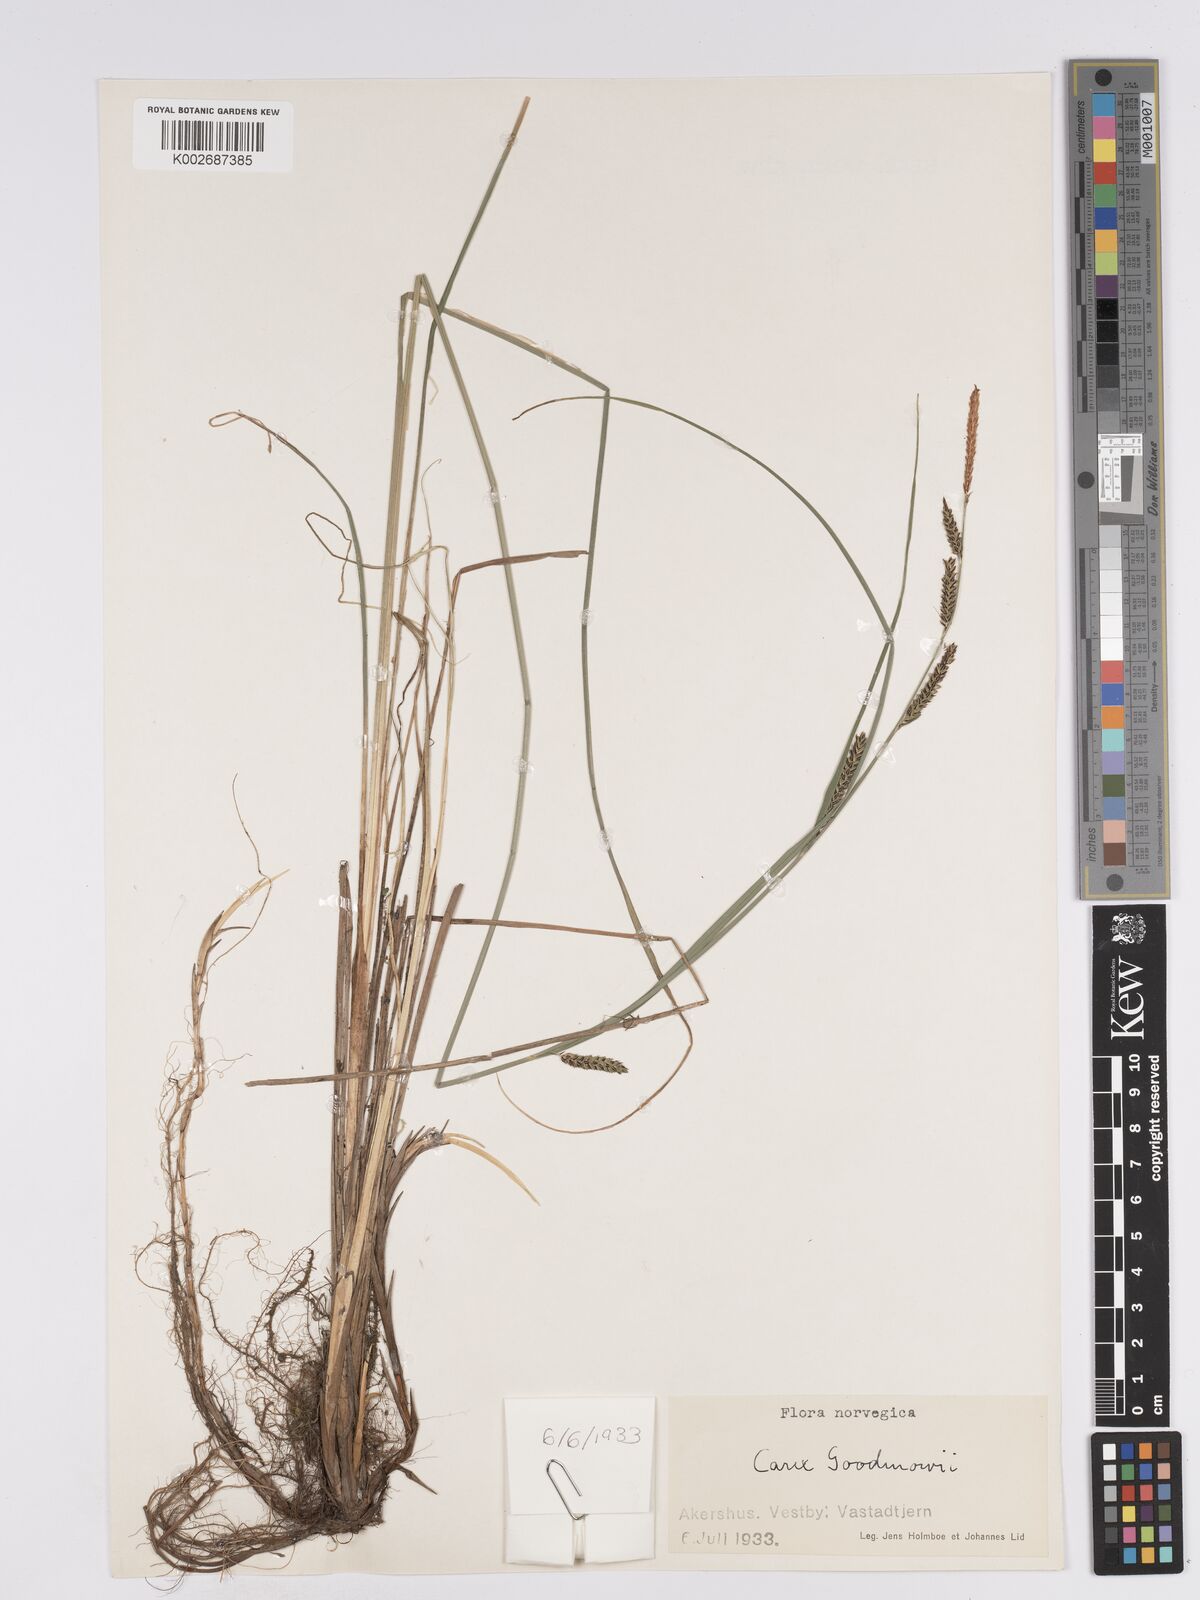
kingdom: Plantae
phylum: Tracheophyta
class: Liliopsida
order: Poales
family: Cyperaceae
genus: Carex
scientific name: Carex nigra
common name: Common sedge
